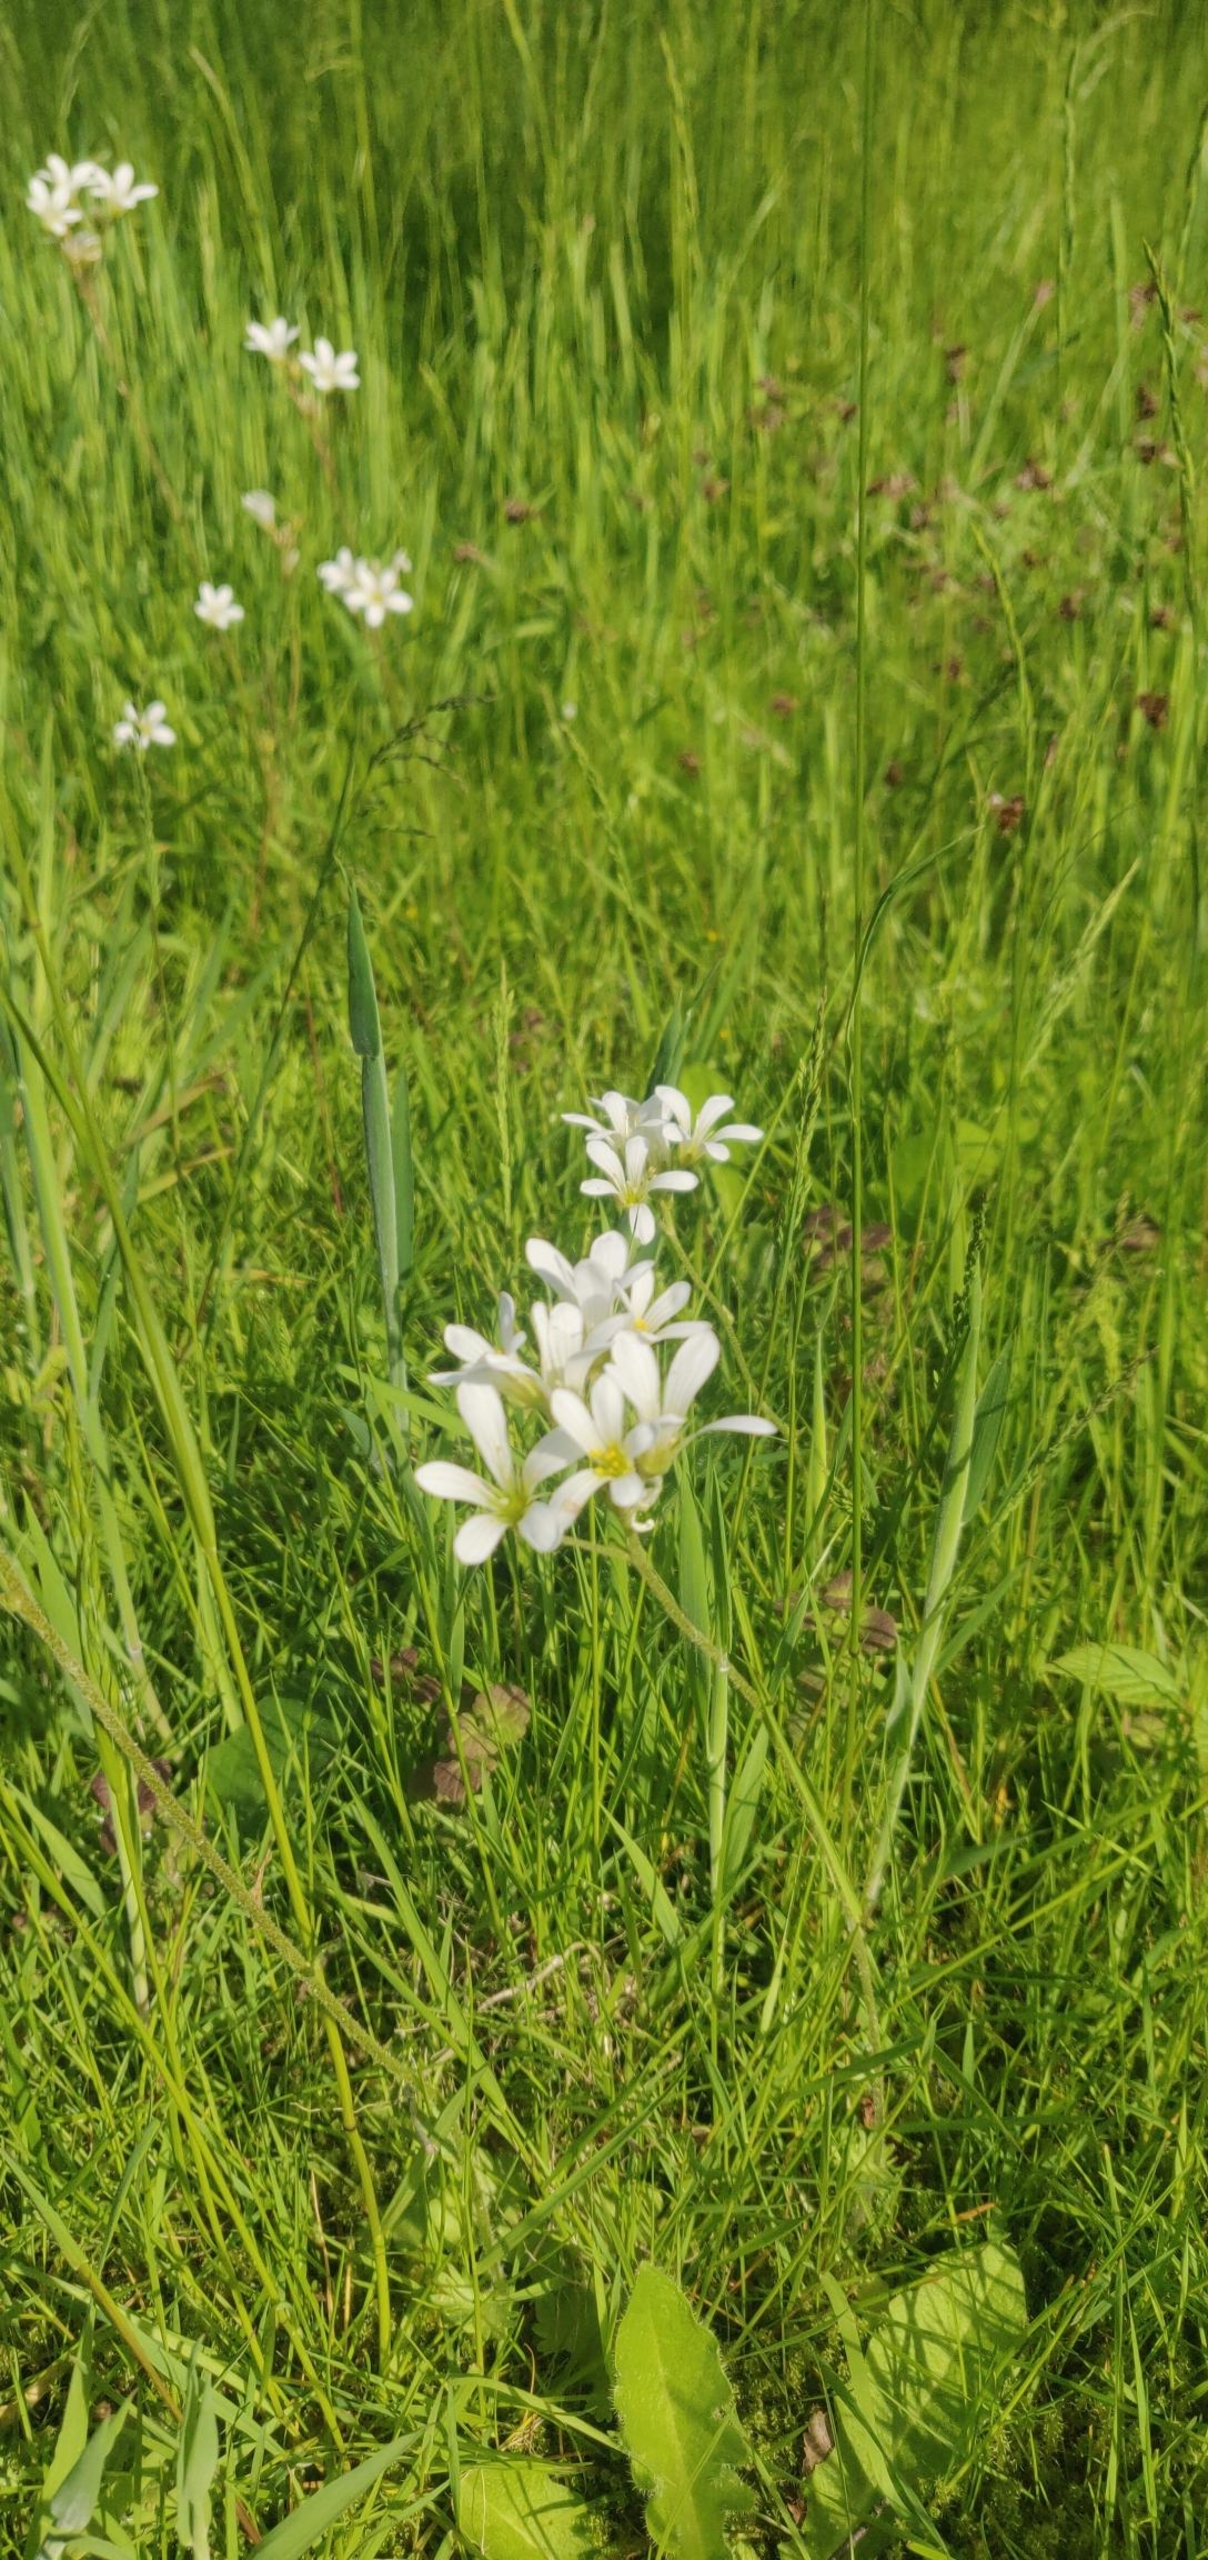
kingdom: Plantae
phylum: Tracheophyta
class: Magnoliopsida
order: Saxifragales
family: Saxifragaceae
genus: Saxifraga
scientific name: Saxifraga granulata
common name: Kornet stenbræk
